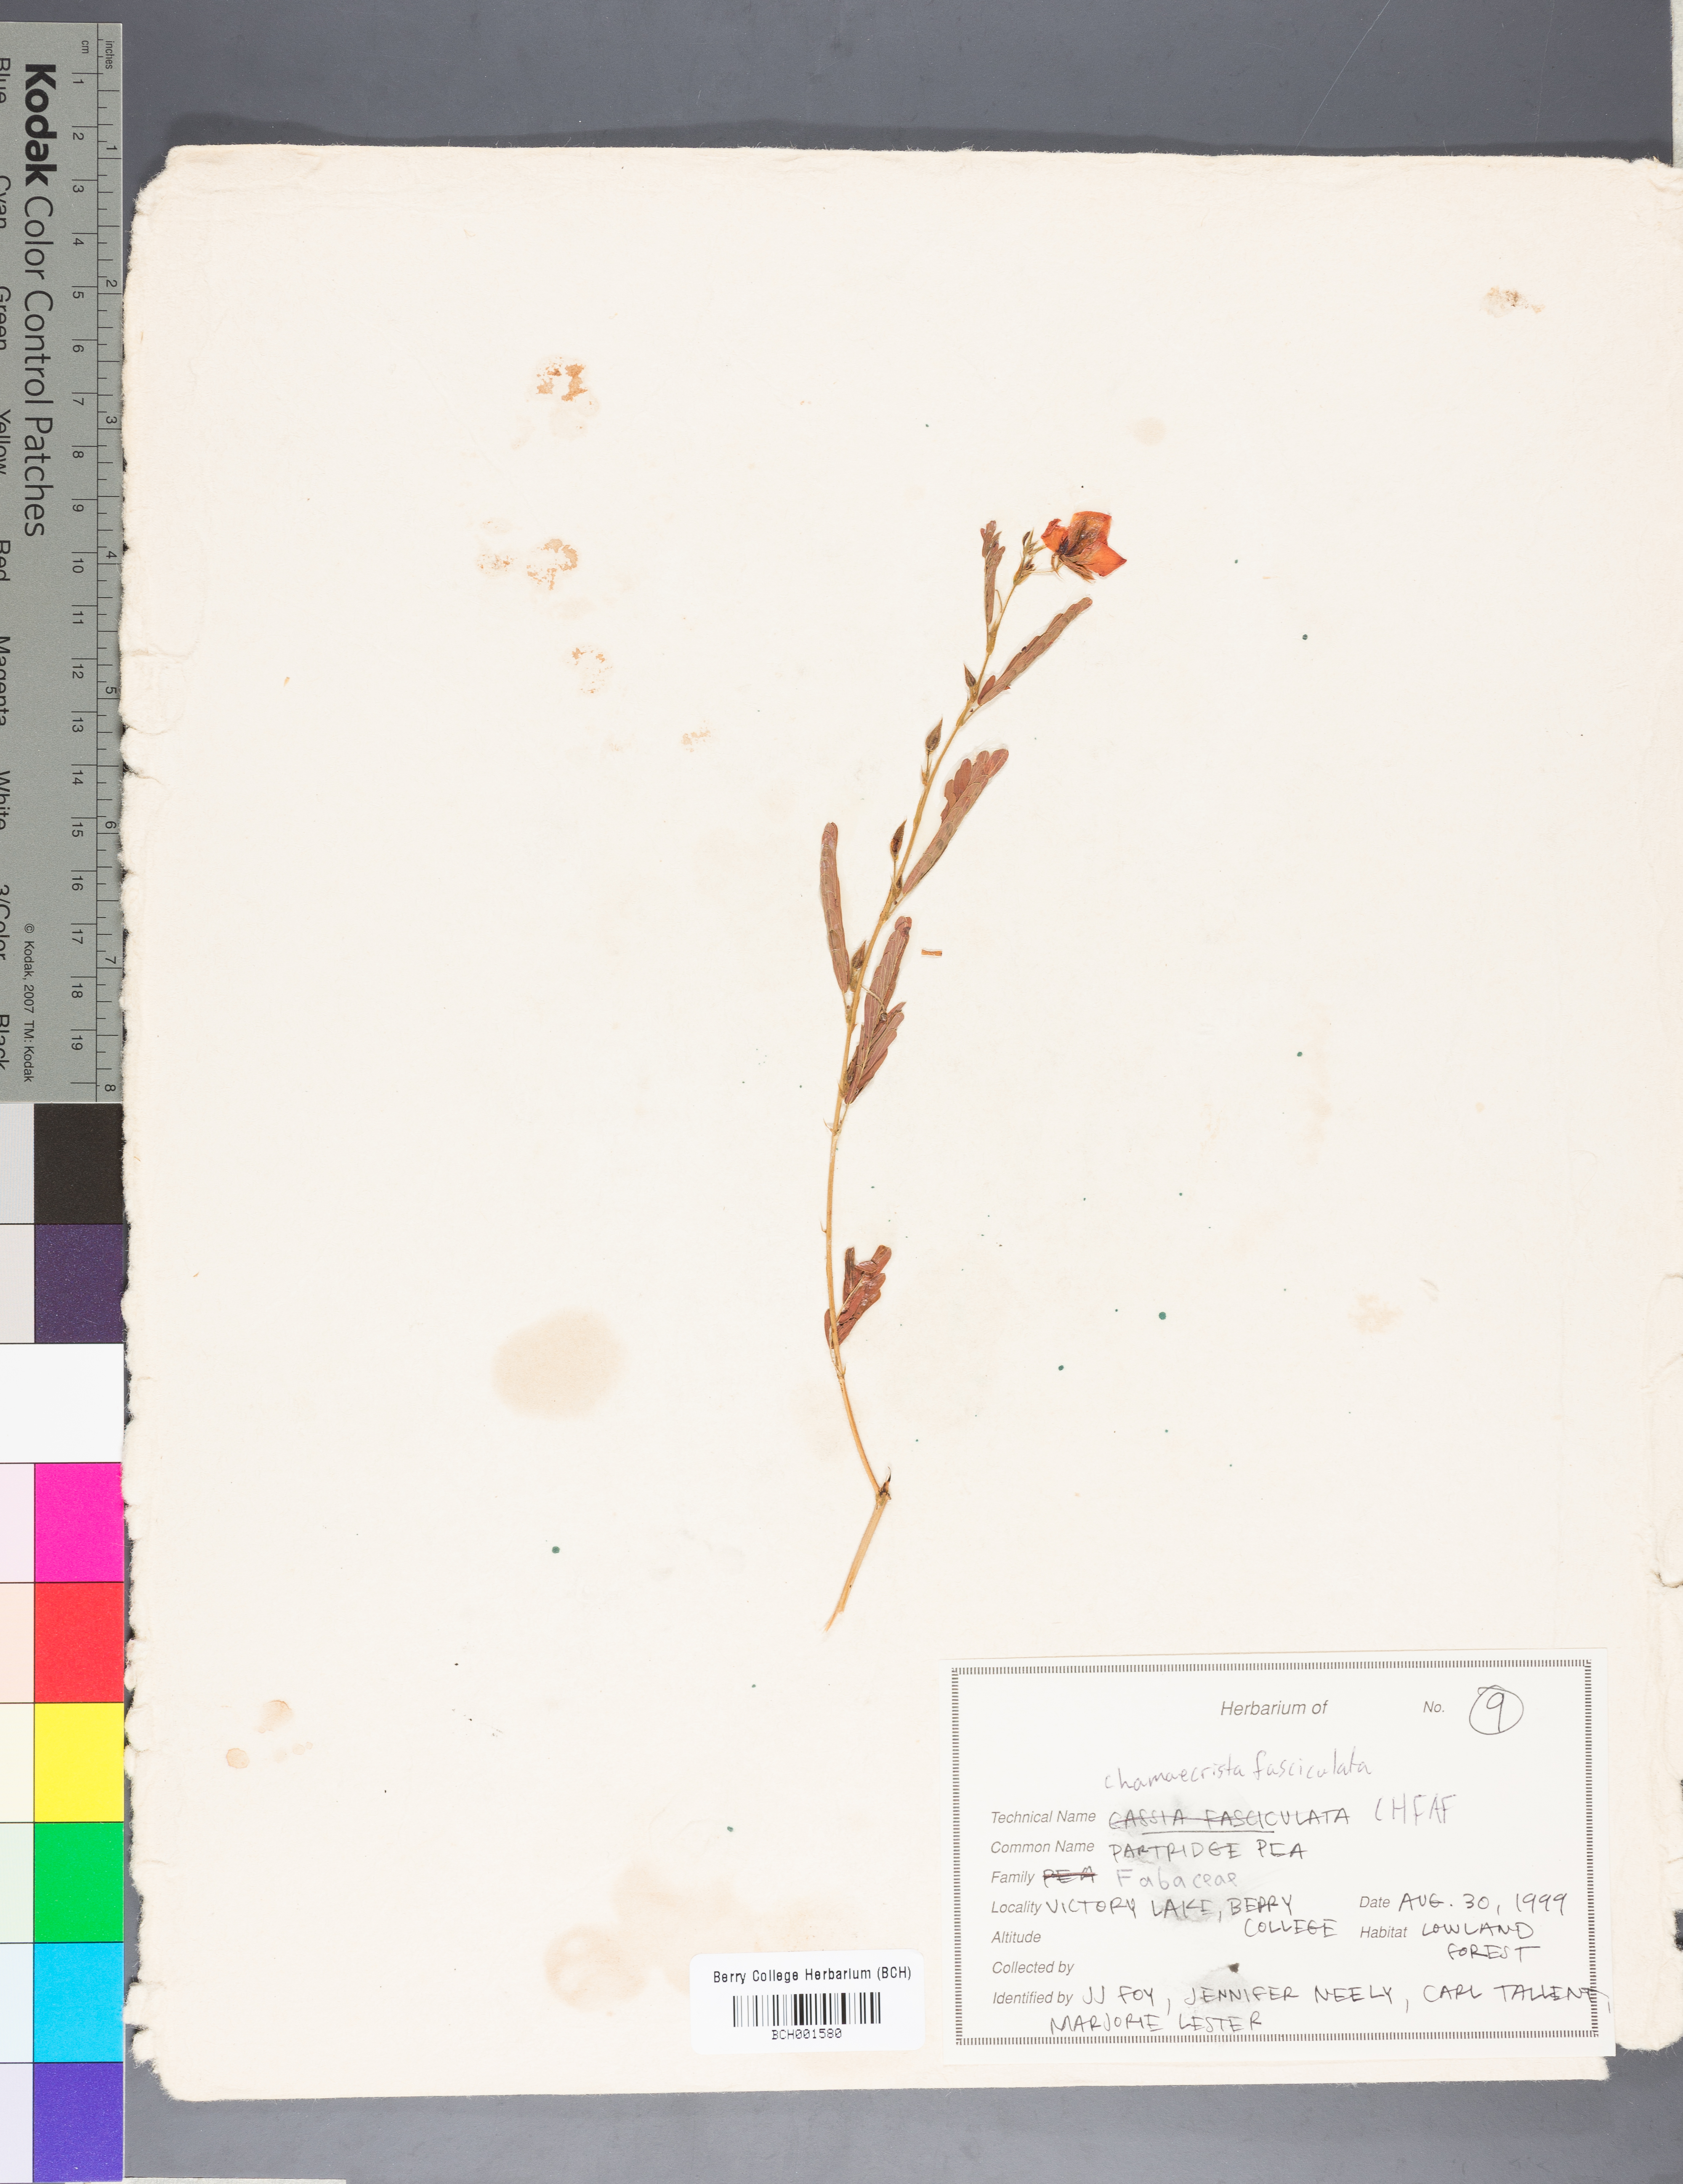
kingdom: Plantae
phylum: Tracheophyta
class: Magnoliopsida
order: Fabales
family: Fabaceae
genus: Chamaecrista
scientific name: Chamaecrista fasciculata
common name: Golden cassia
